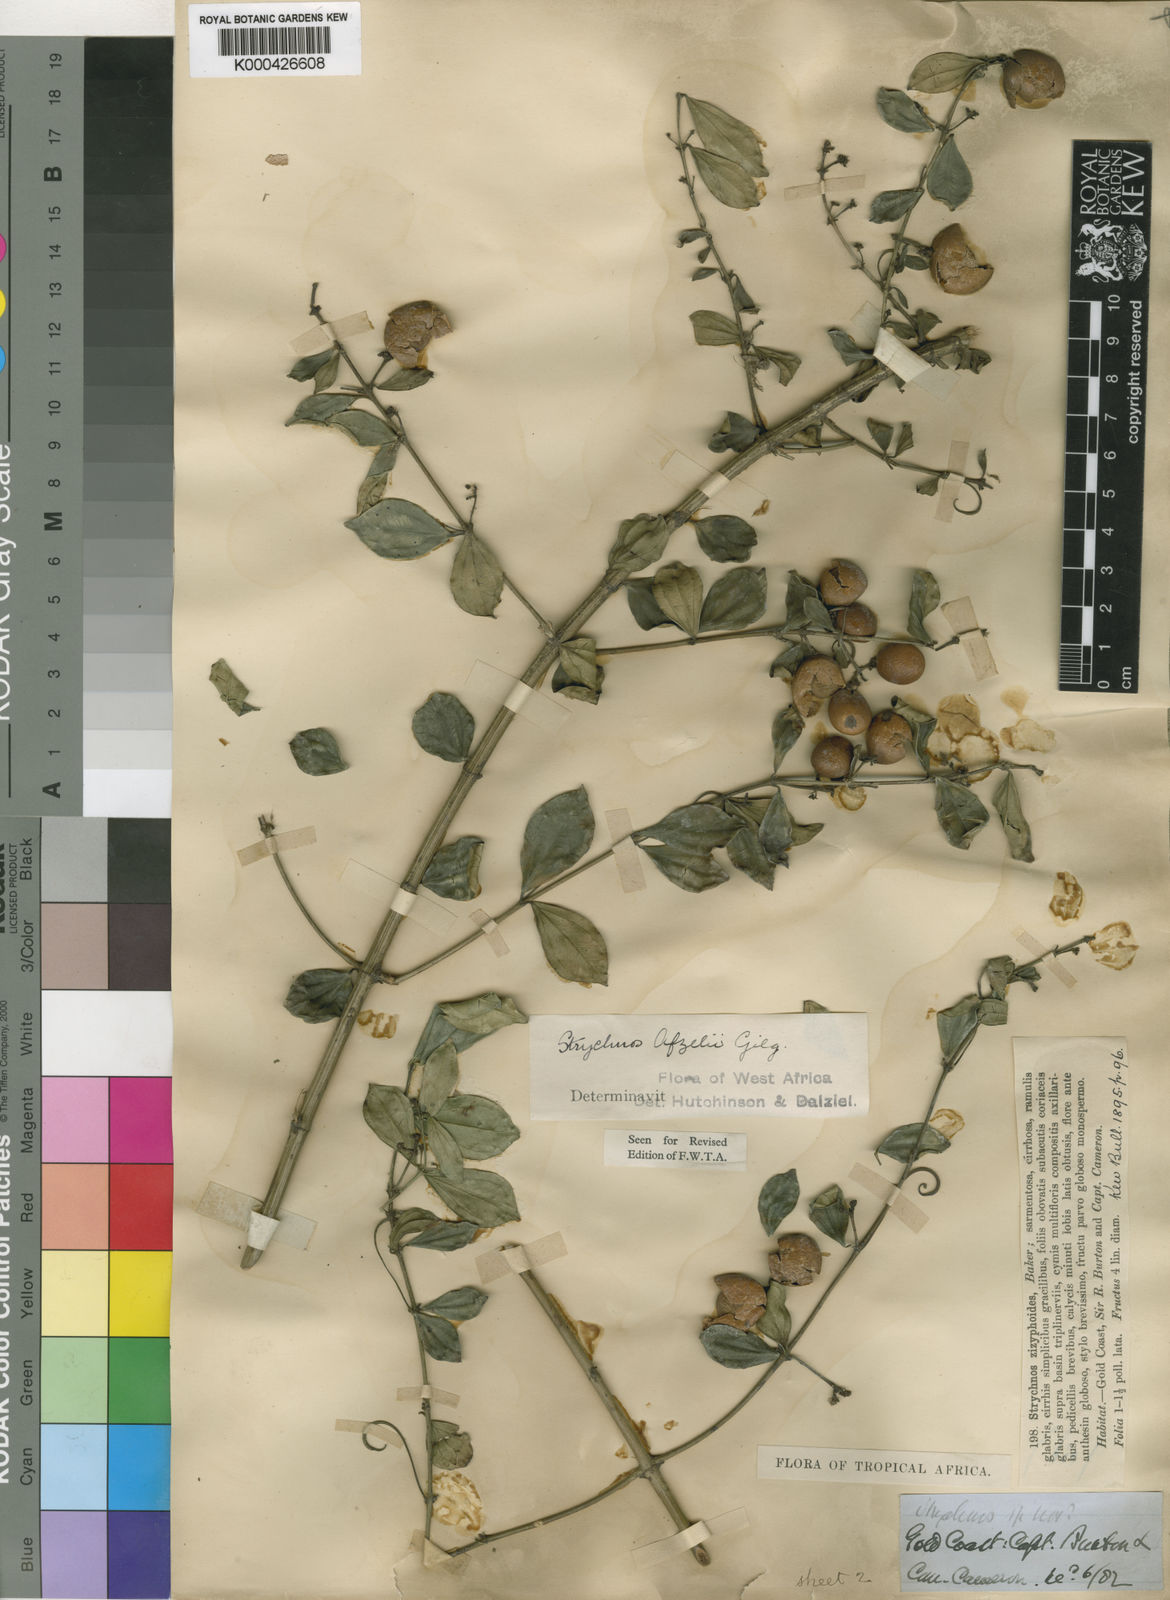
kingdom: Plantae
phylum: Tracheophyta
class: Magnoliopsida
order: Gentianales
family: Loganiaceae
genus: Strychnos
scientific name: Strychnos afzelii
